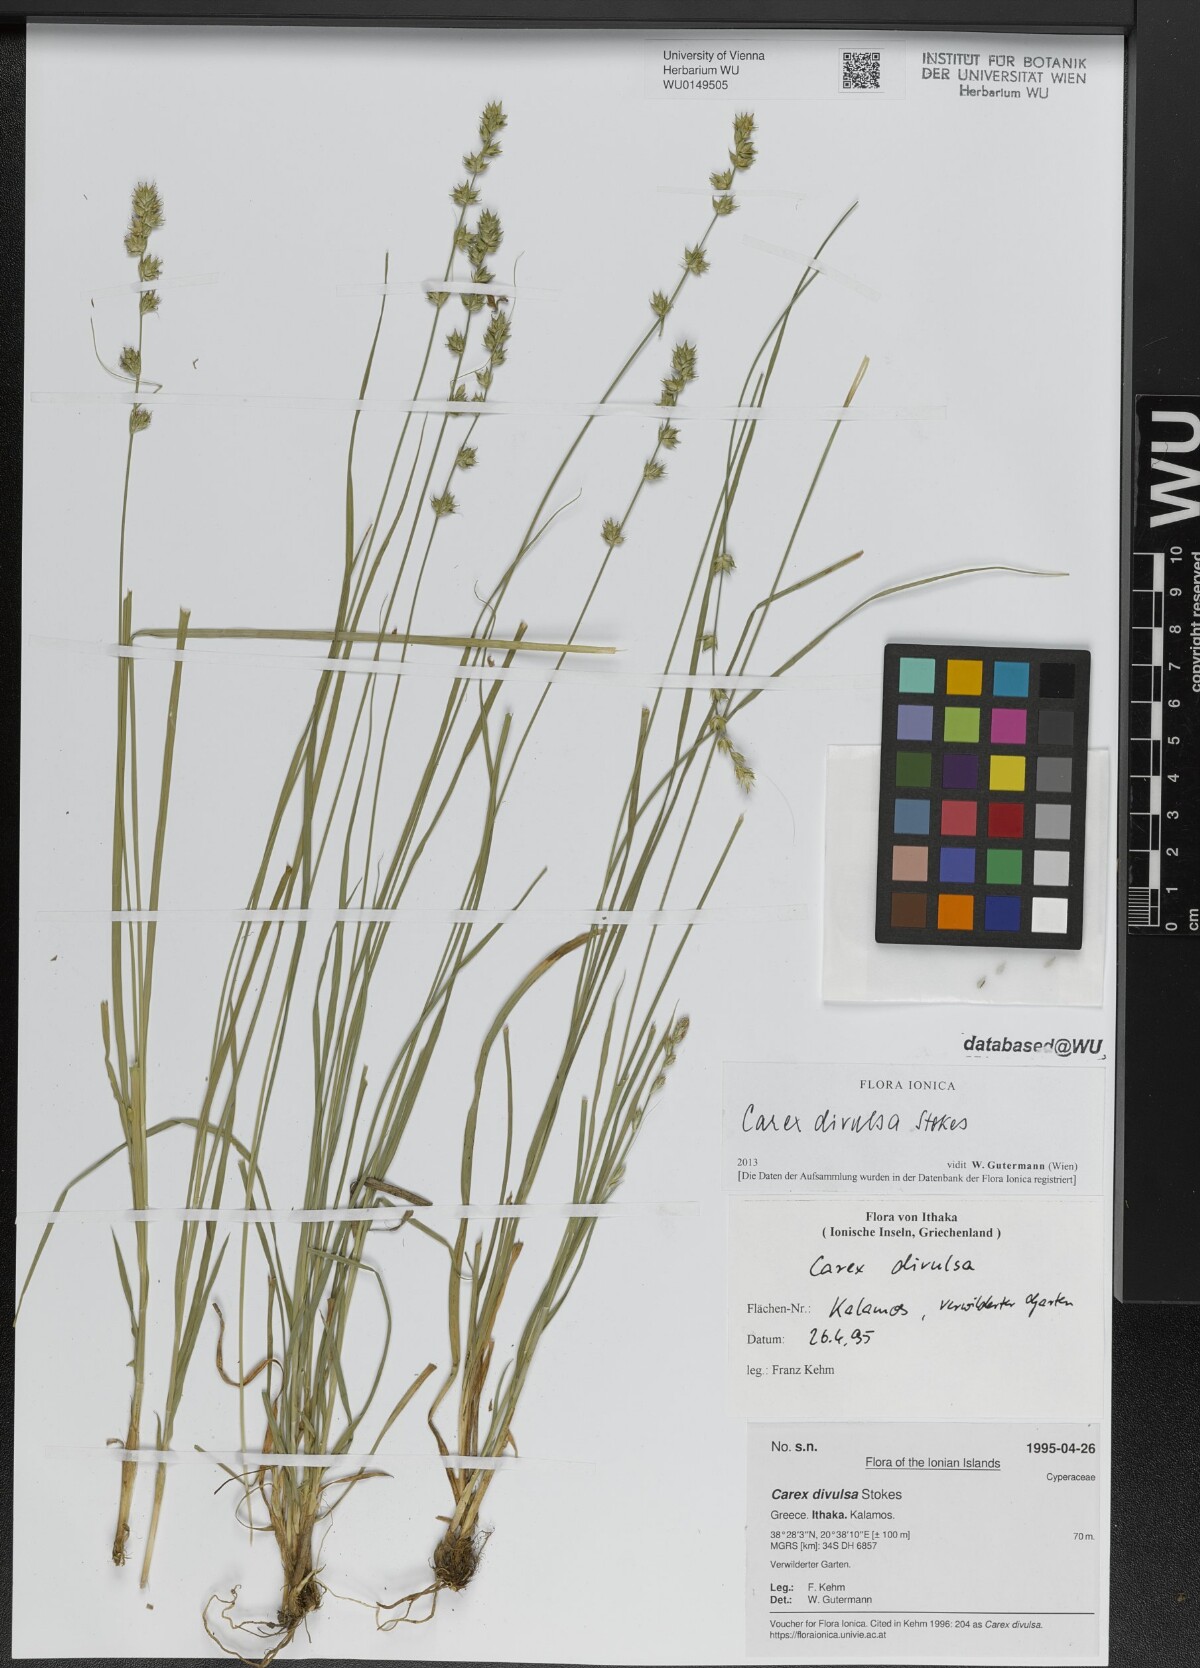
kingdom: Plantae
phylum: Tracheophyta
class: Liliopsida
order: Poales
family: Cyperaceae
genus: Carex
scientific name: Carex divulsa
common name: Grassland sedge
